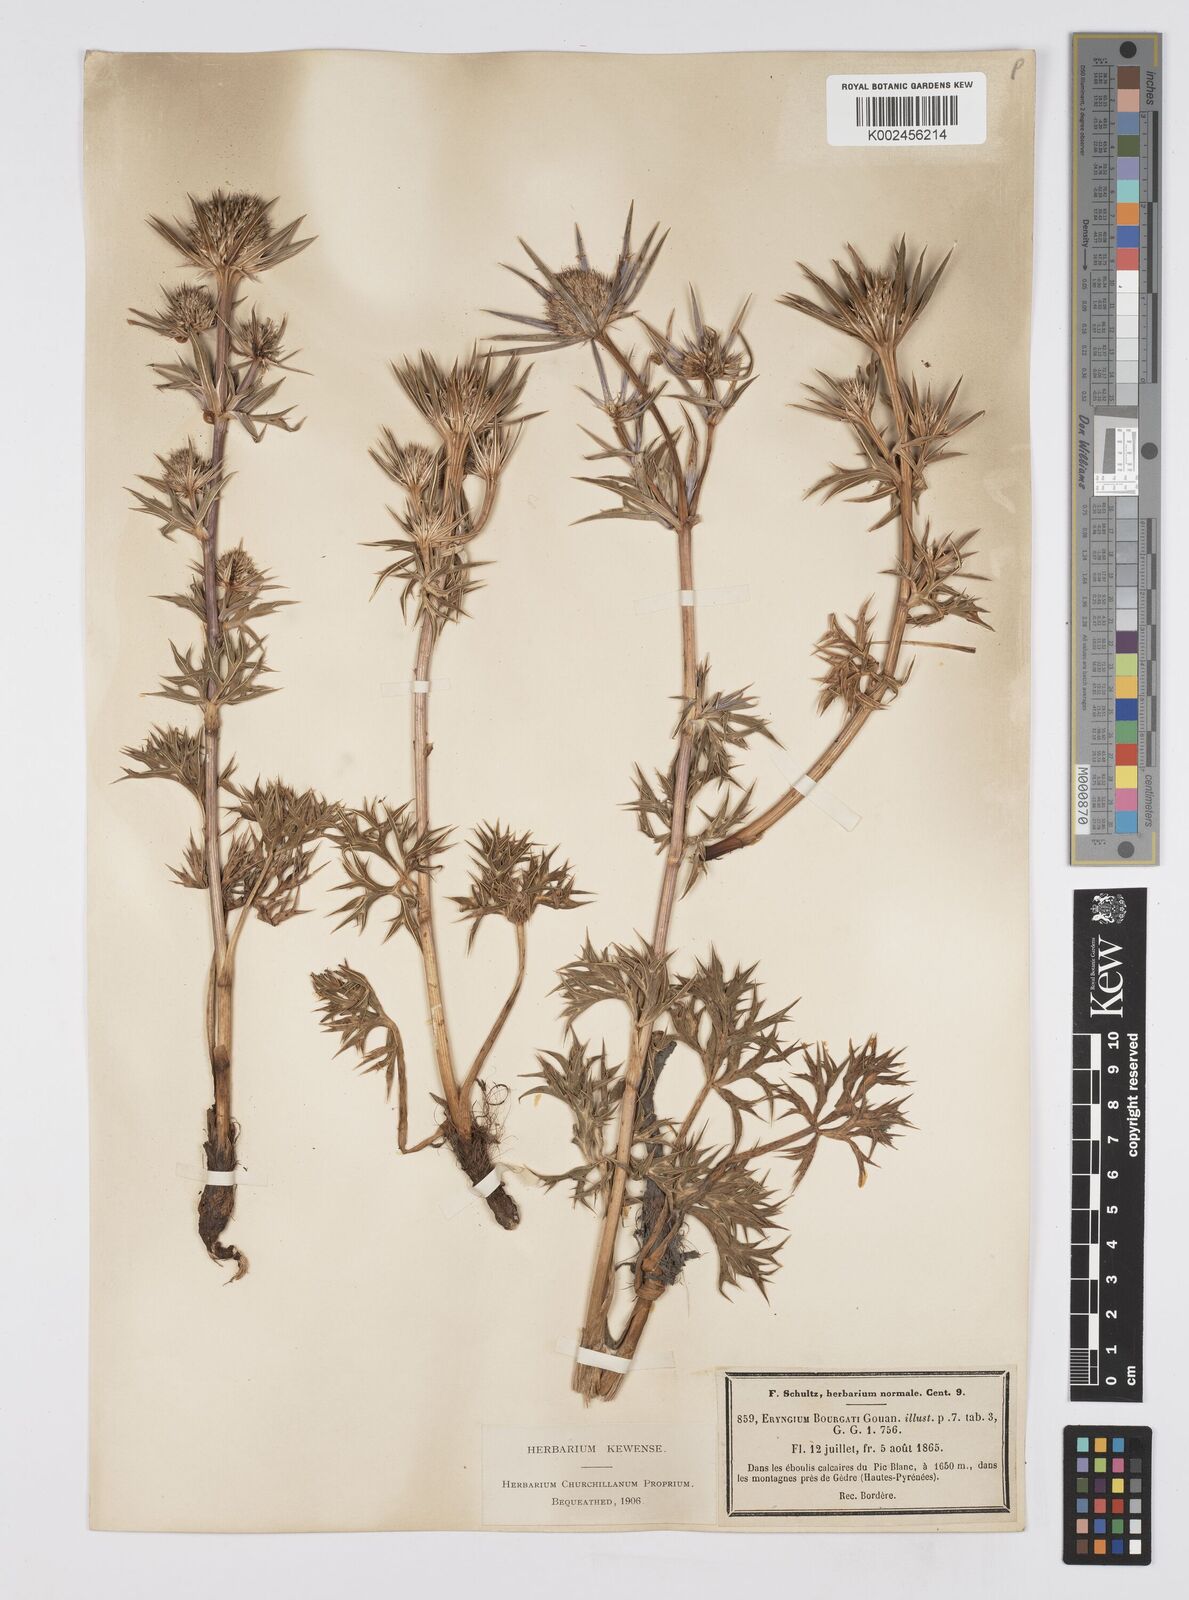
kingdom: Plantae
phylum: Tracheophyta
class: Magnoliopsida
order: Apiales
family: Apiaceae
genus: Eryngium
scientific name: Eryngium bourgatii
